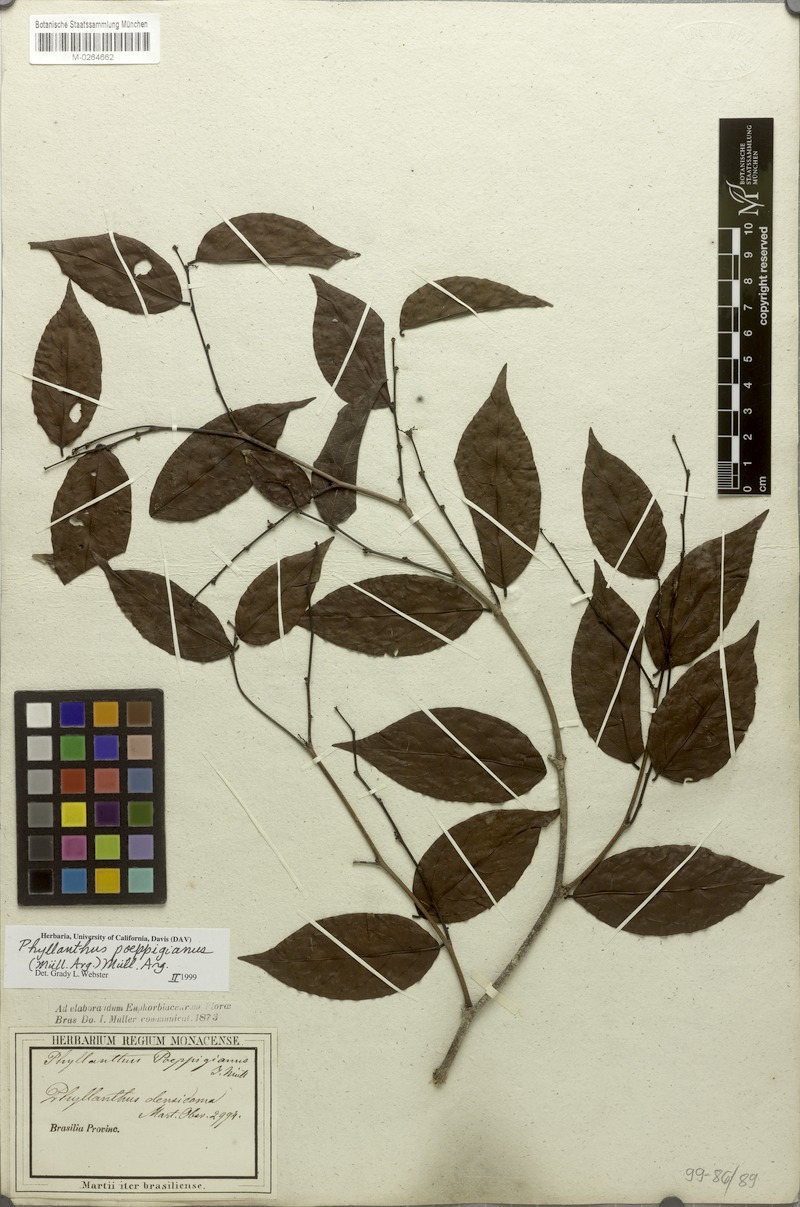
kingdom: Plantae
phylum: Tracheophyta
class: Magnoliopsida
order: Malpighiales
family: Phyllanthaceae
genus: Phyllanthus
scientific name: Phyllanthus poeppigianus
